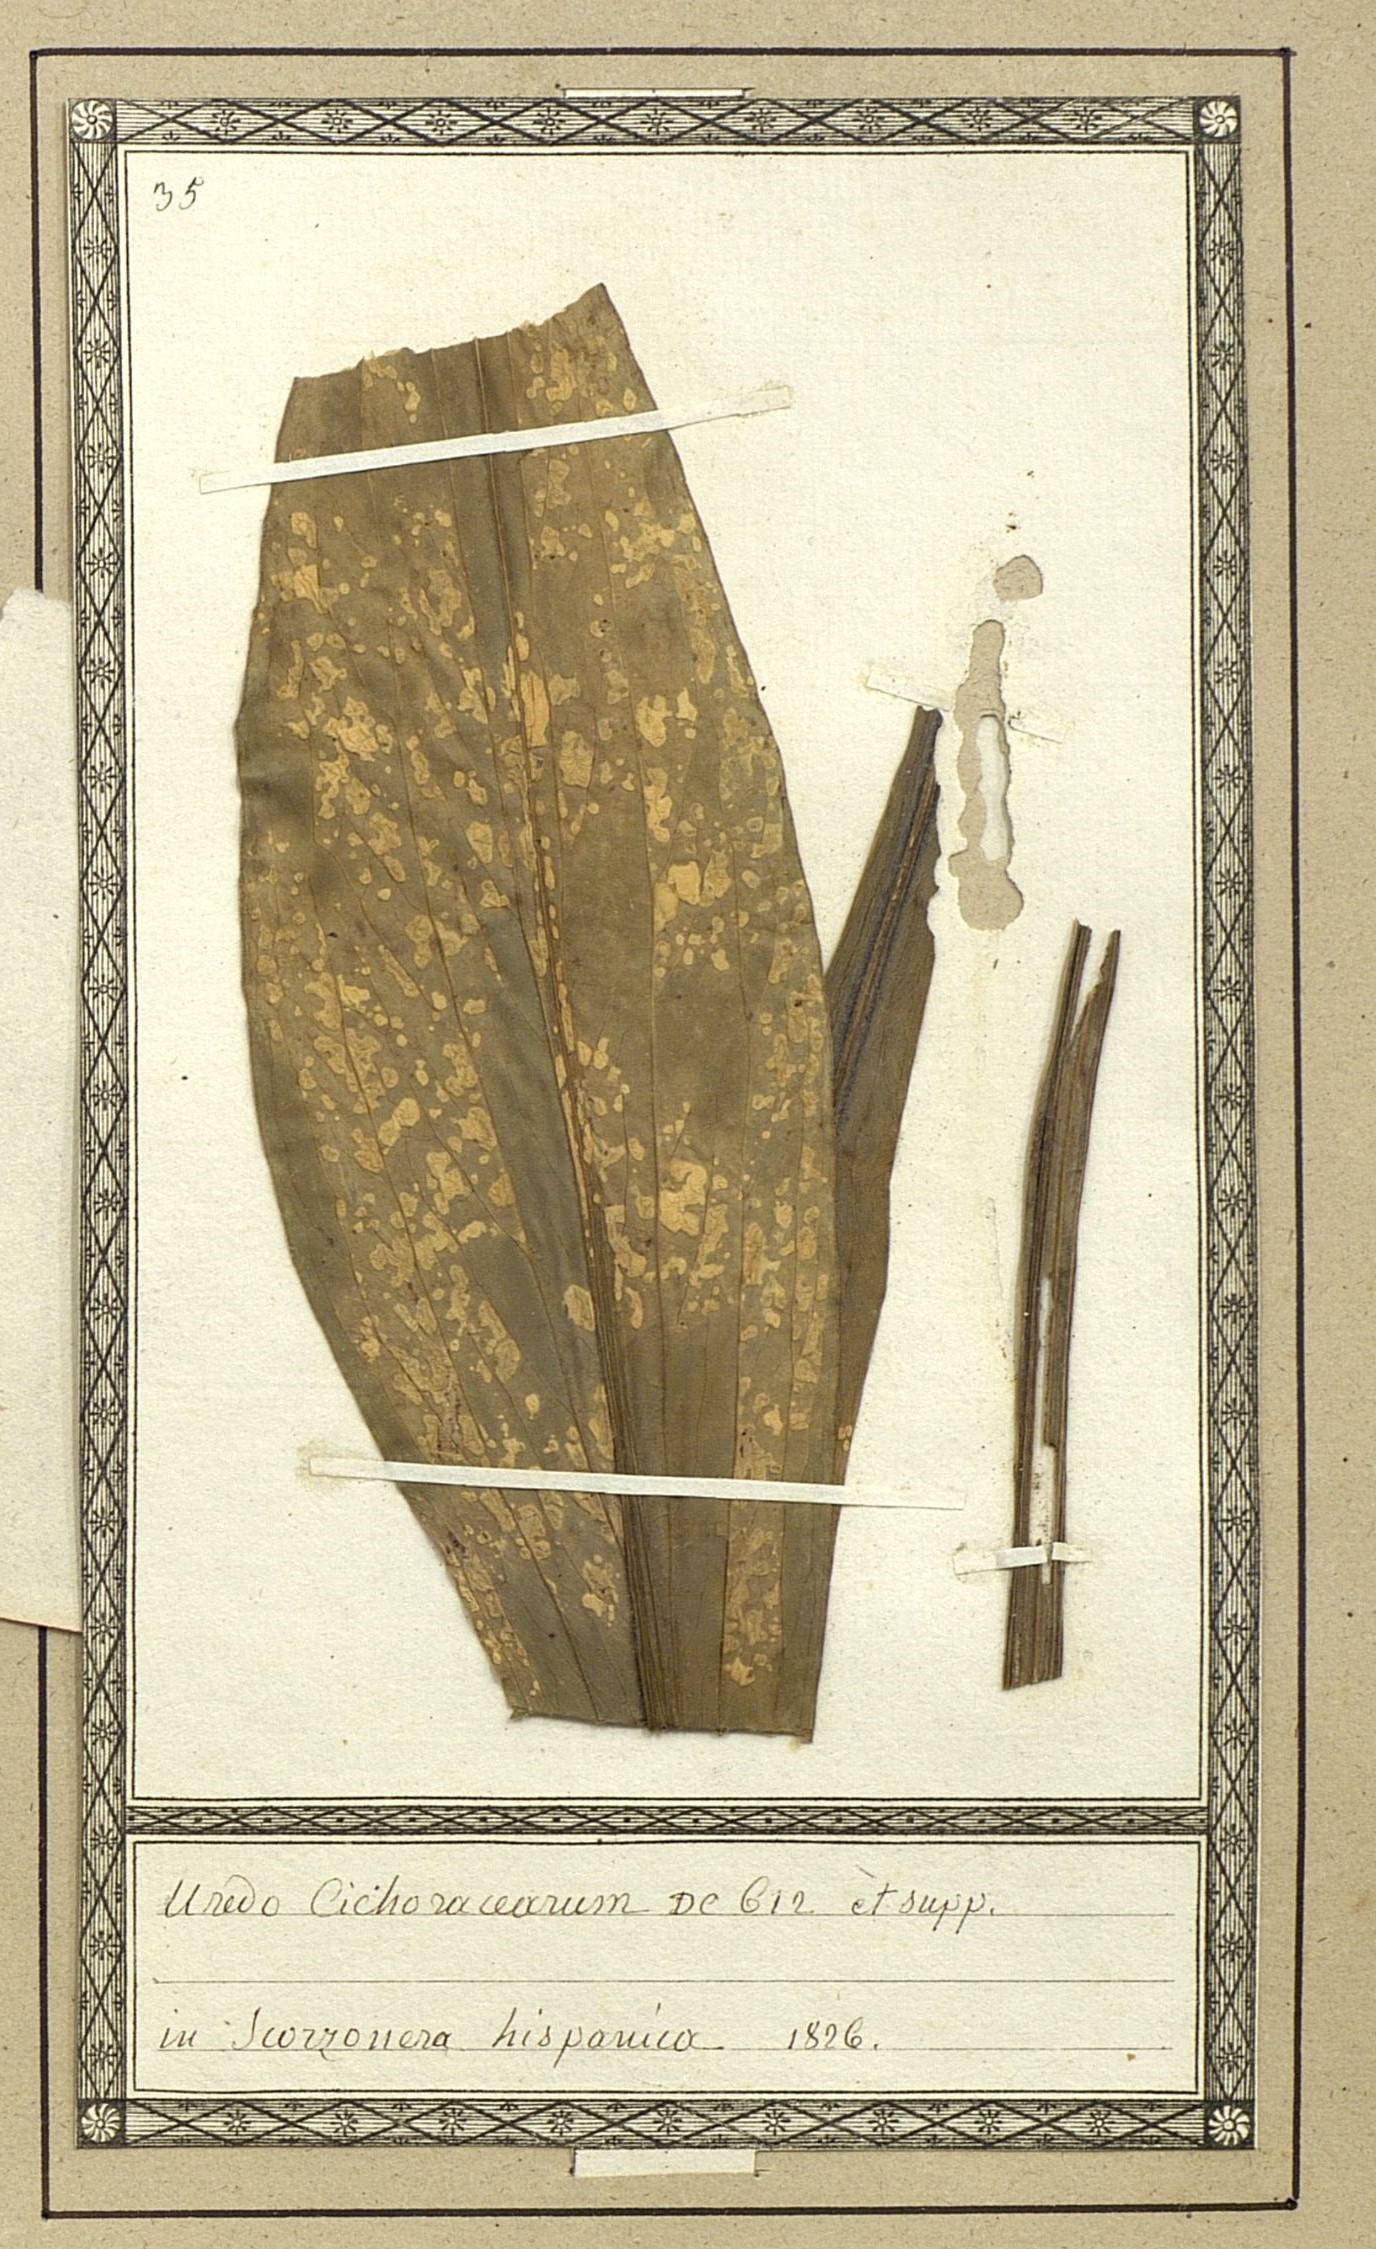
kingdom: Fungi
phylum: Basidiomycota
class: Pucciniomycetes
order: Pucciniales
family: Pucciniaceae
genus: Puccinia
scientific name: Puccinia maculosa
